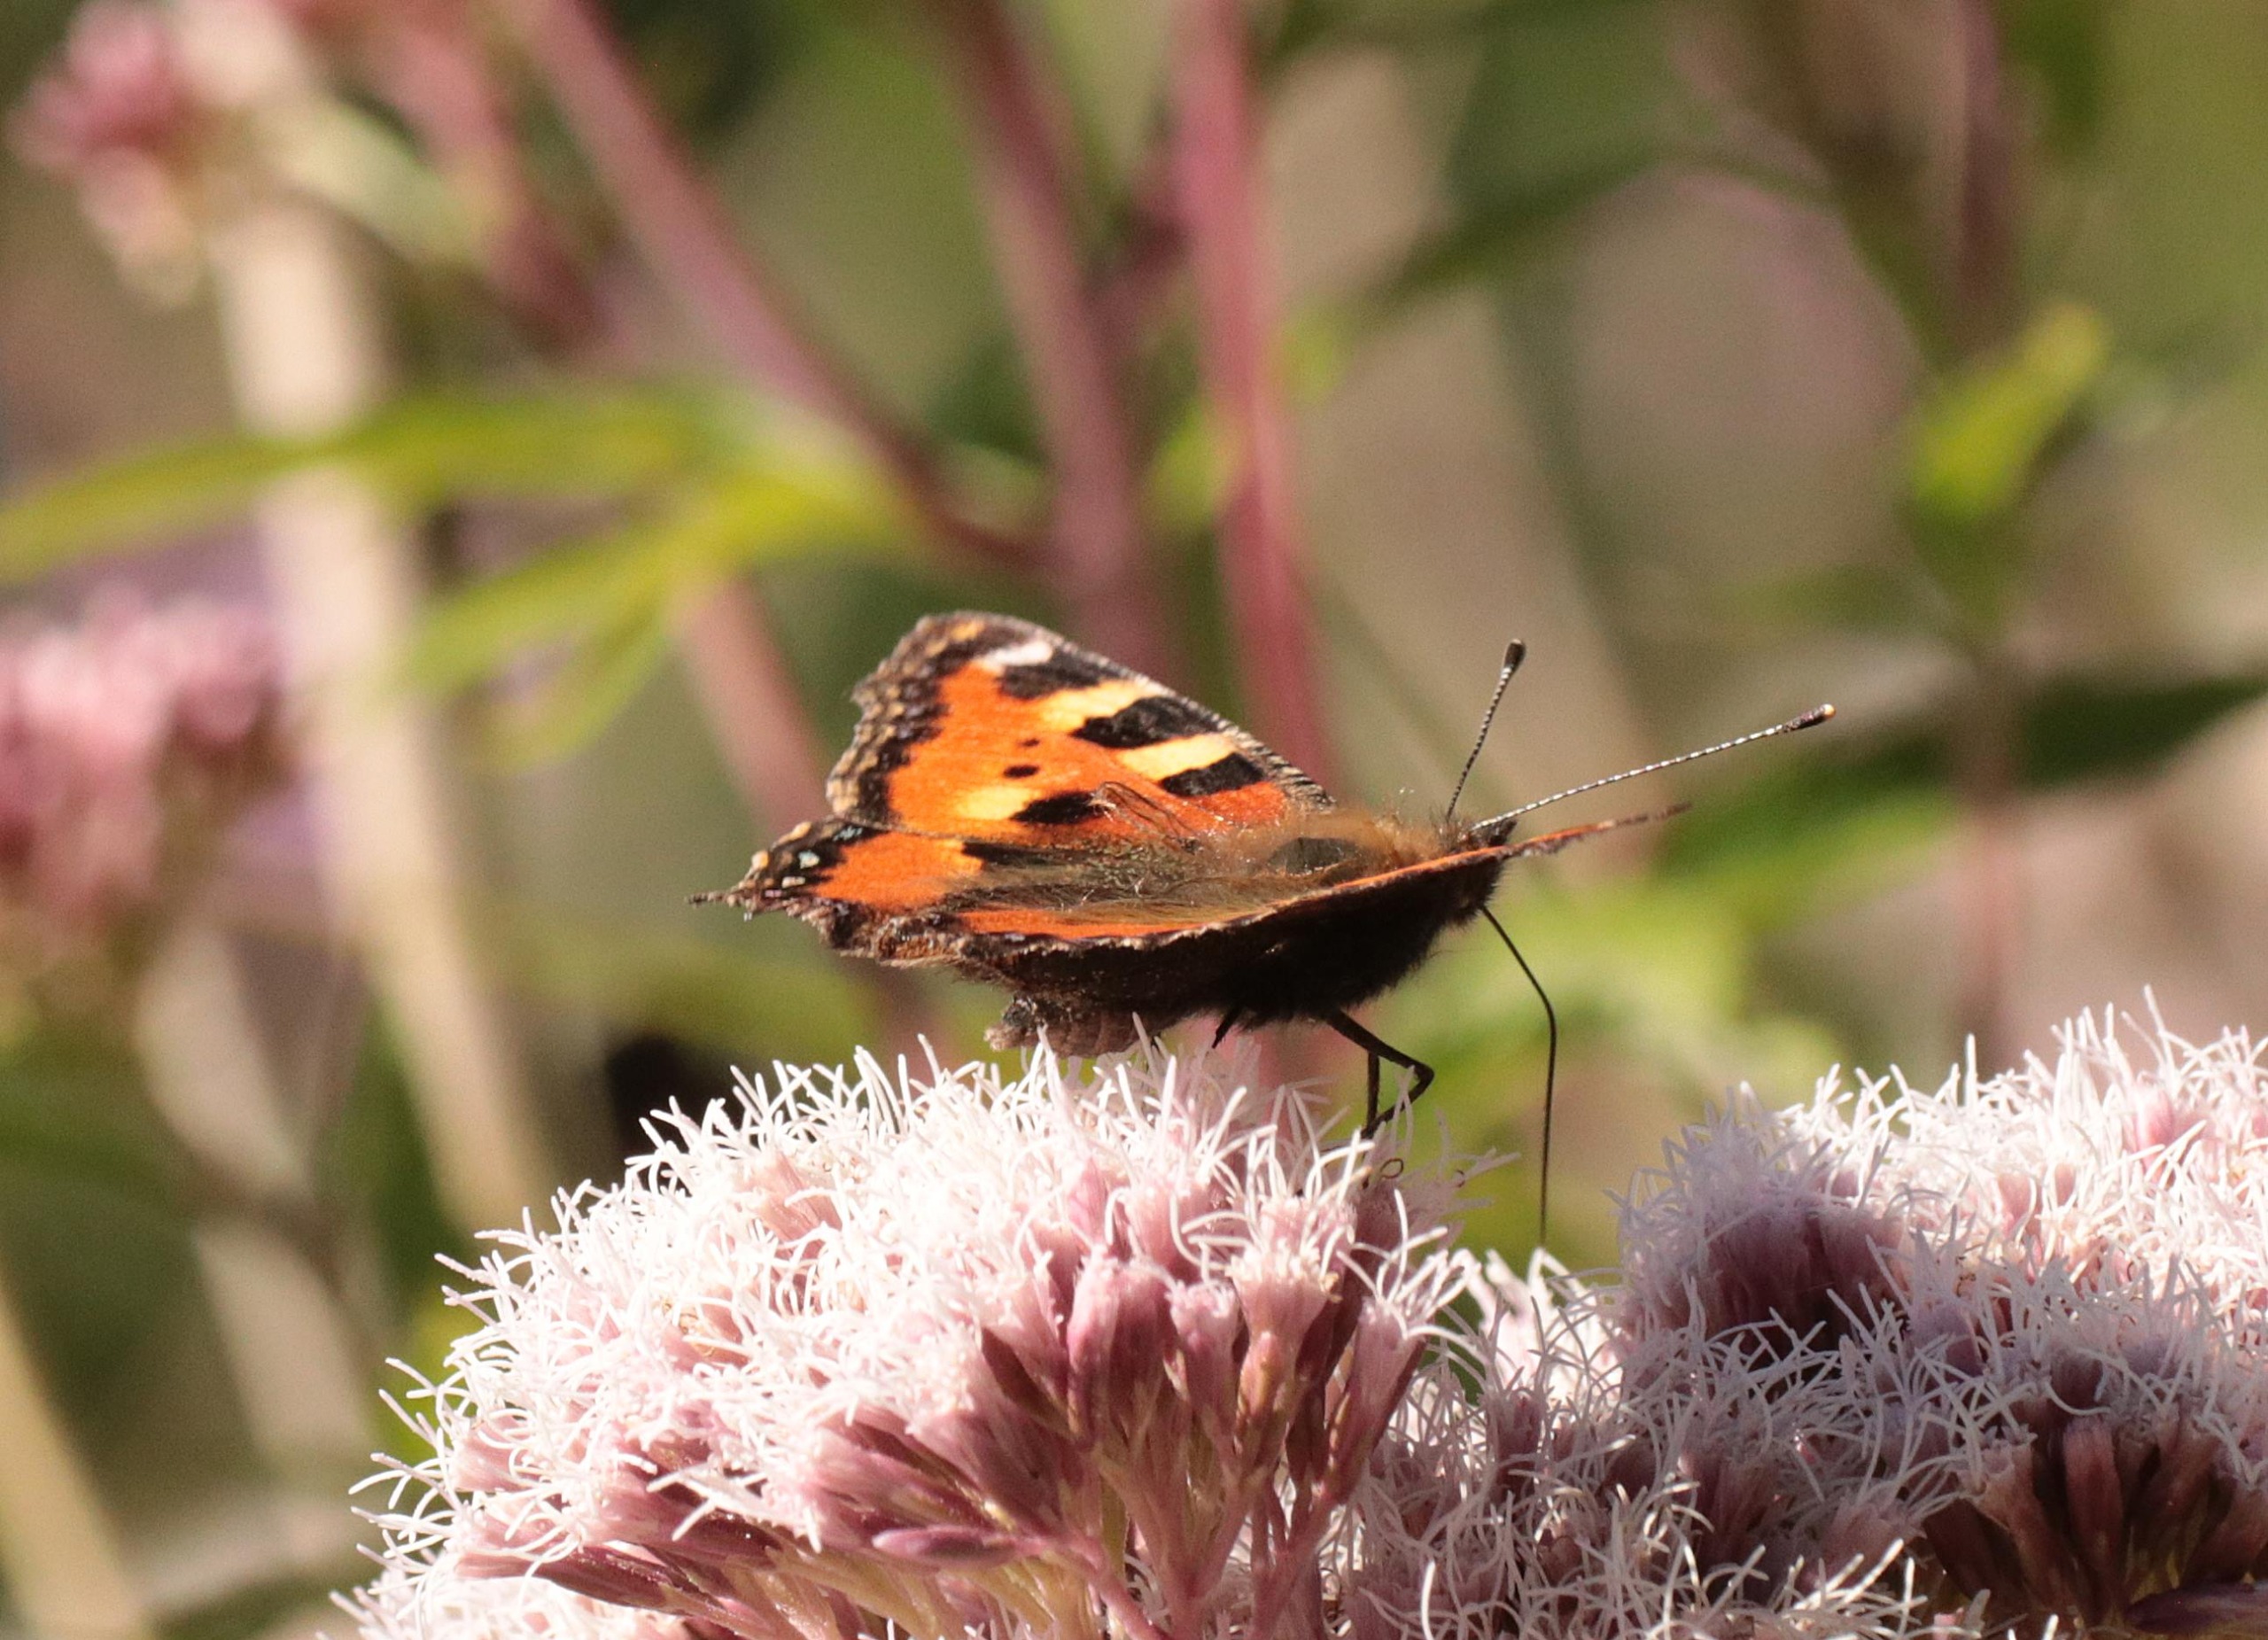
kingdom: Animalia
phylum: Arthropoda
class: Insecta
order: Lepidoptera
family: Nymphalidae
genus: Aglais
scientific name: Aglais urticae
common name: Nældens takvinge
